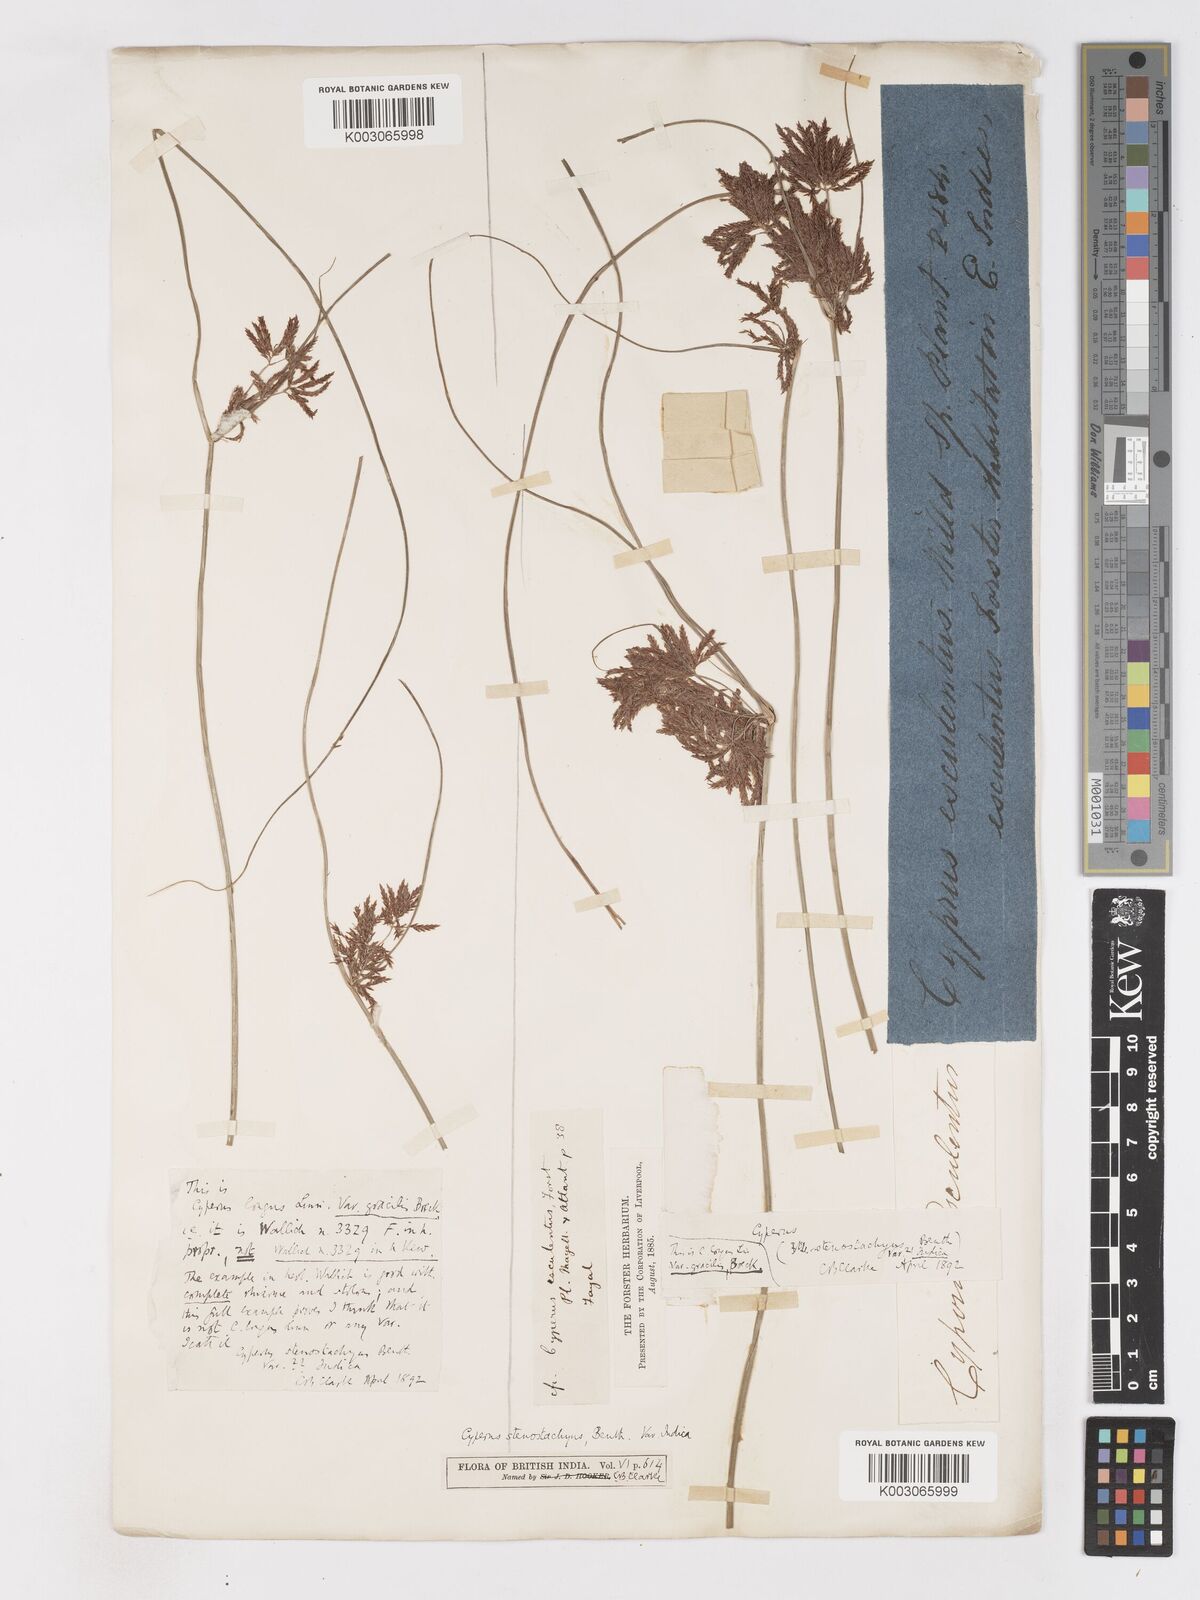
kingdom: Plantae
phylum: Tracheophyta
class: Liliopsida
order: Poales
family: Cyperaceae
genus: Cyperus
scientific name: Cyperus longus
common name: Galingale
